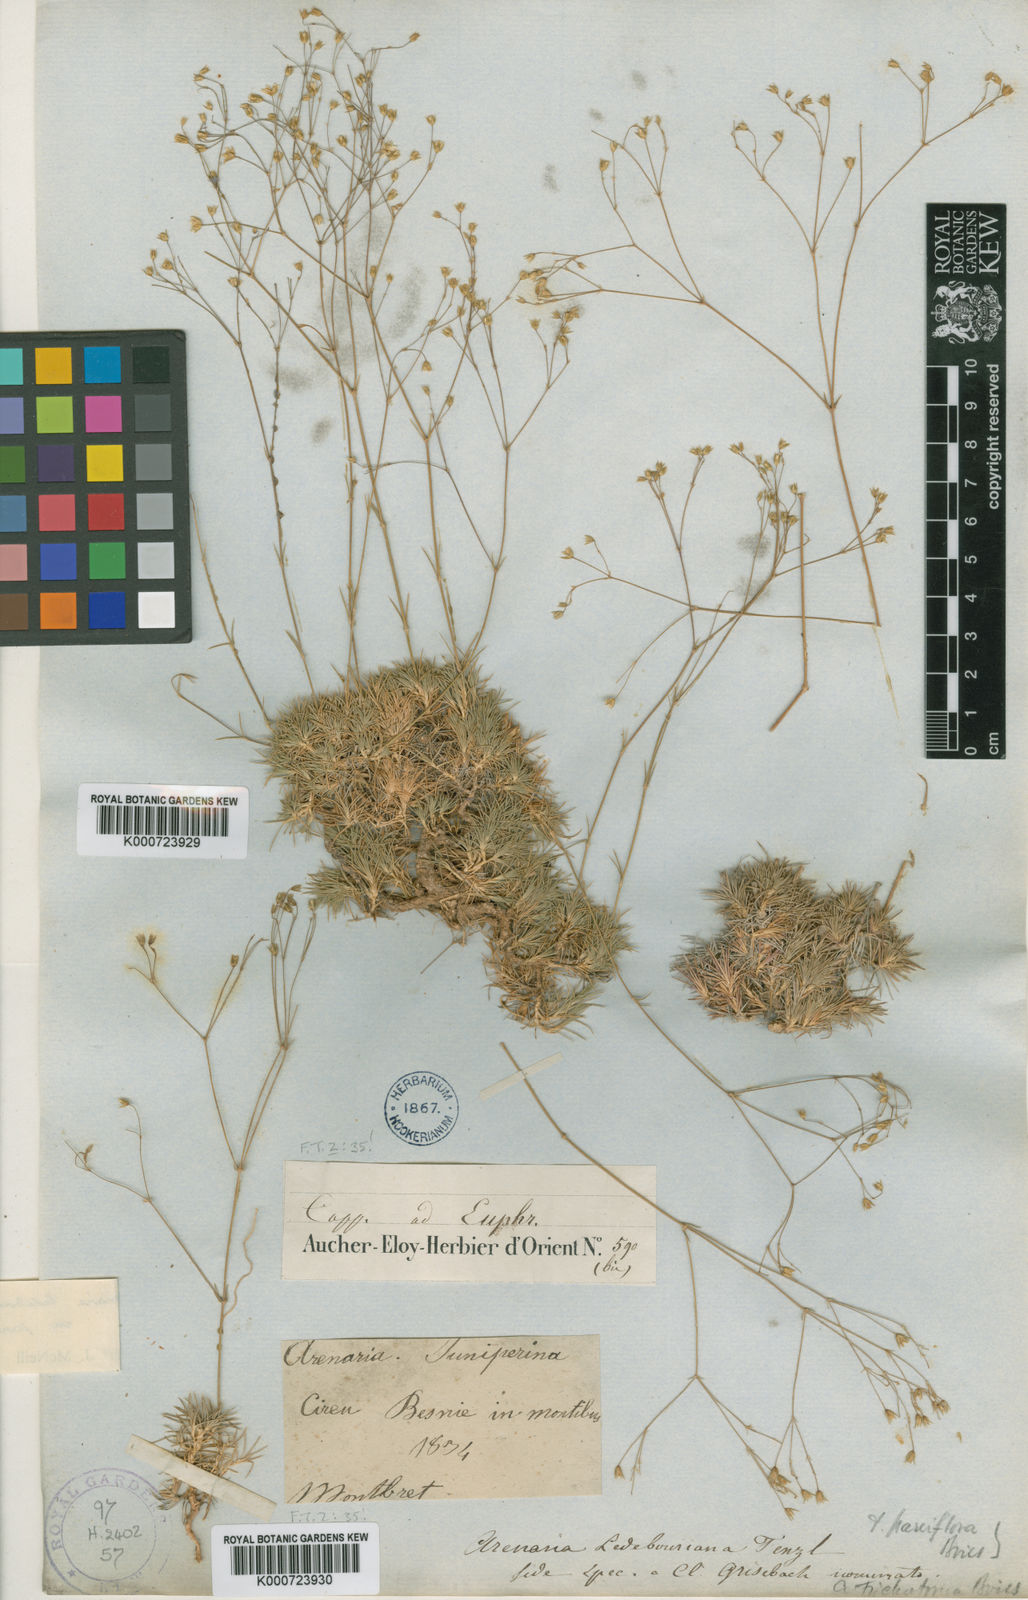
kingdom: Plantae
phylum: Tracheophyta
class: Magnoliopsida
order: Caryophyllales
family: Caryophyllaceae
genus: Eremogone
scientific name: Eremogone ledebouriana
